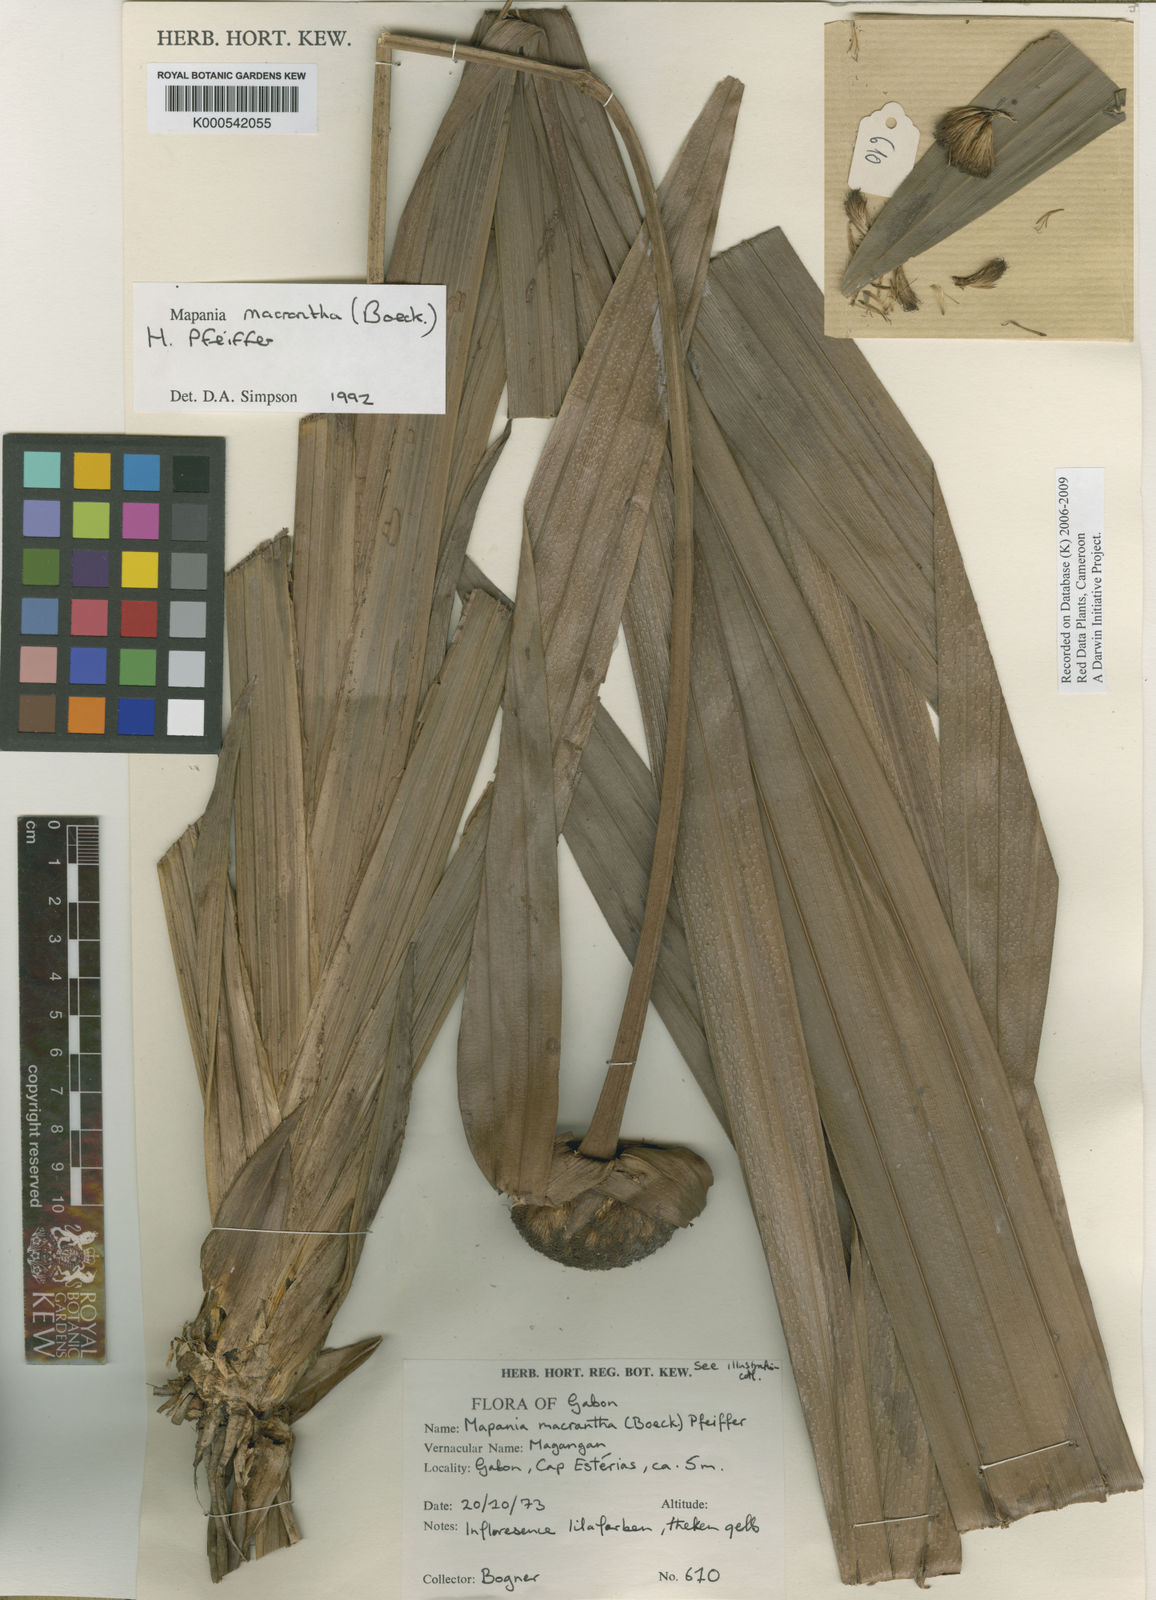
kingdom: Plantae
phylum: Tracheophyta
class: Liliopsida
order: Poales
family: Cyperaceae
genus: Mapania
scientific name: Mapania macrantha
